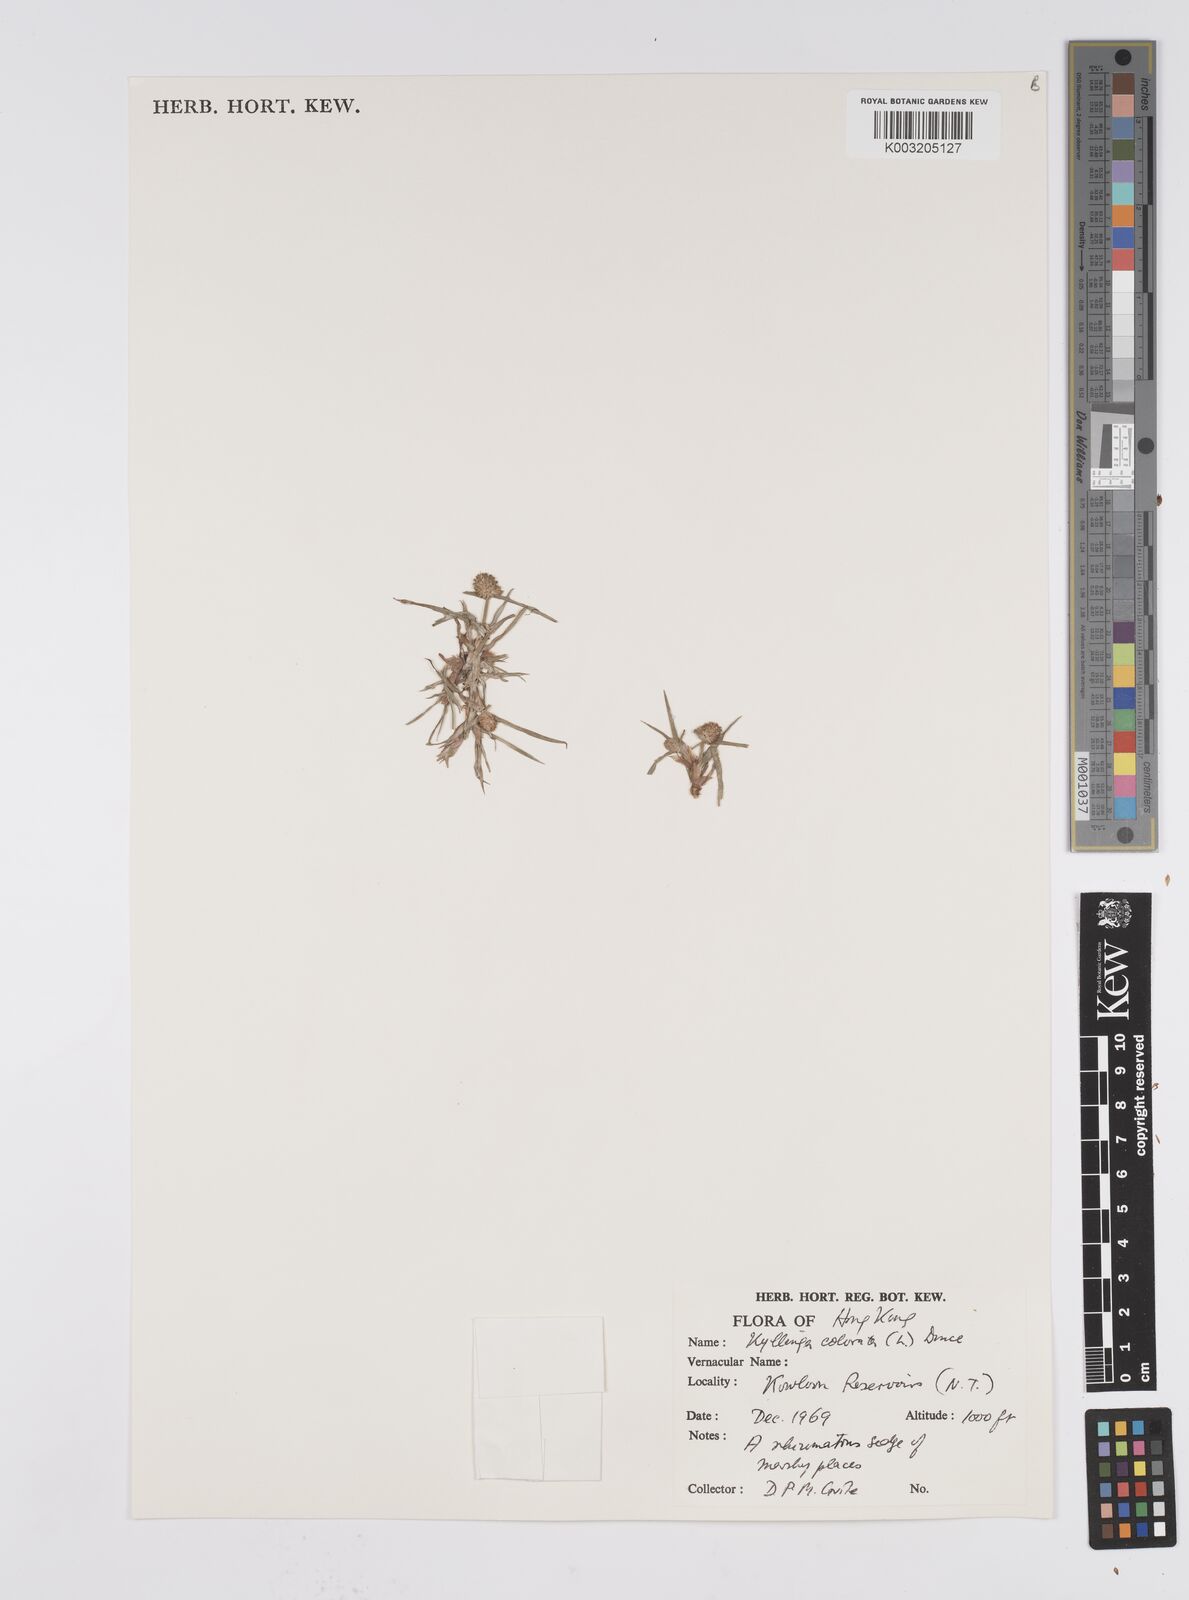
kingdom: Plantae
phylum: Tracheophyta
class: Liliopsida
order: Poales
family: Cyperaceae
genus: Cyperus
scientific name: Cyperus brevifolius
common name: Globe kyllinga
